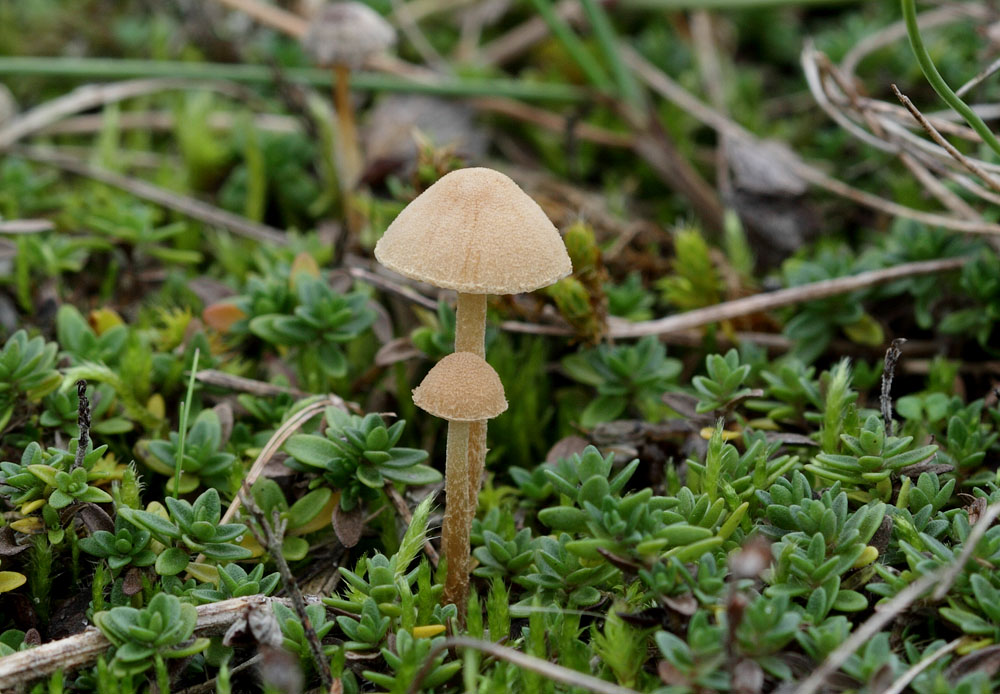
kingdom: Fungi
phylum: Basidiomycota
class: Agaricomycetes
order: Agaricales
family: Tubariaceae
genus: Flammulaster
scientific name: Flammulaster carpophilus
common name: bøge-grynskælhat
